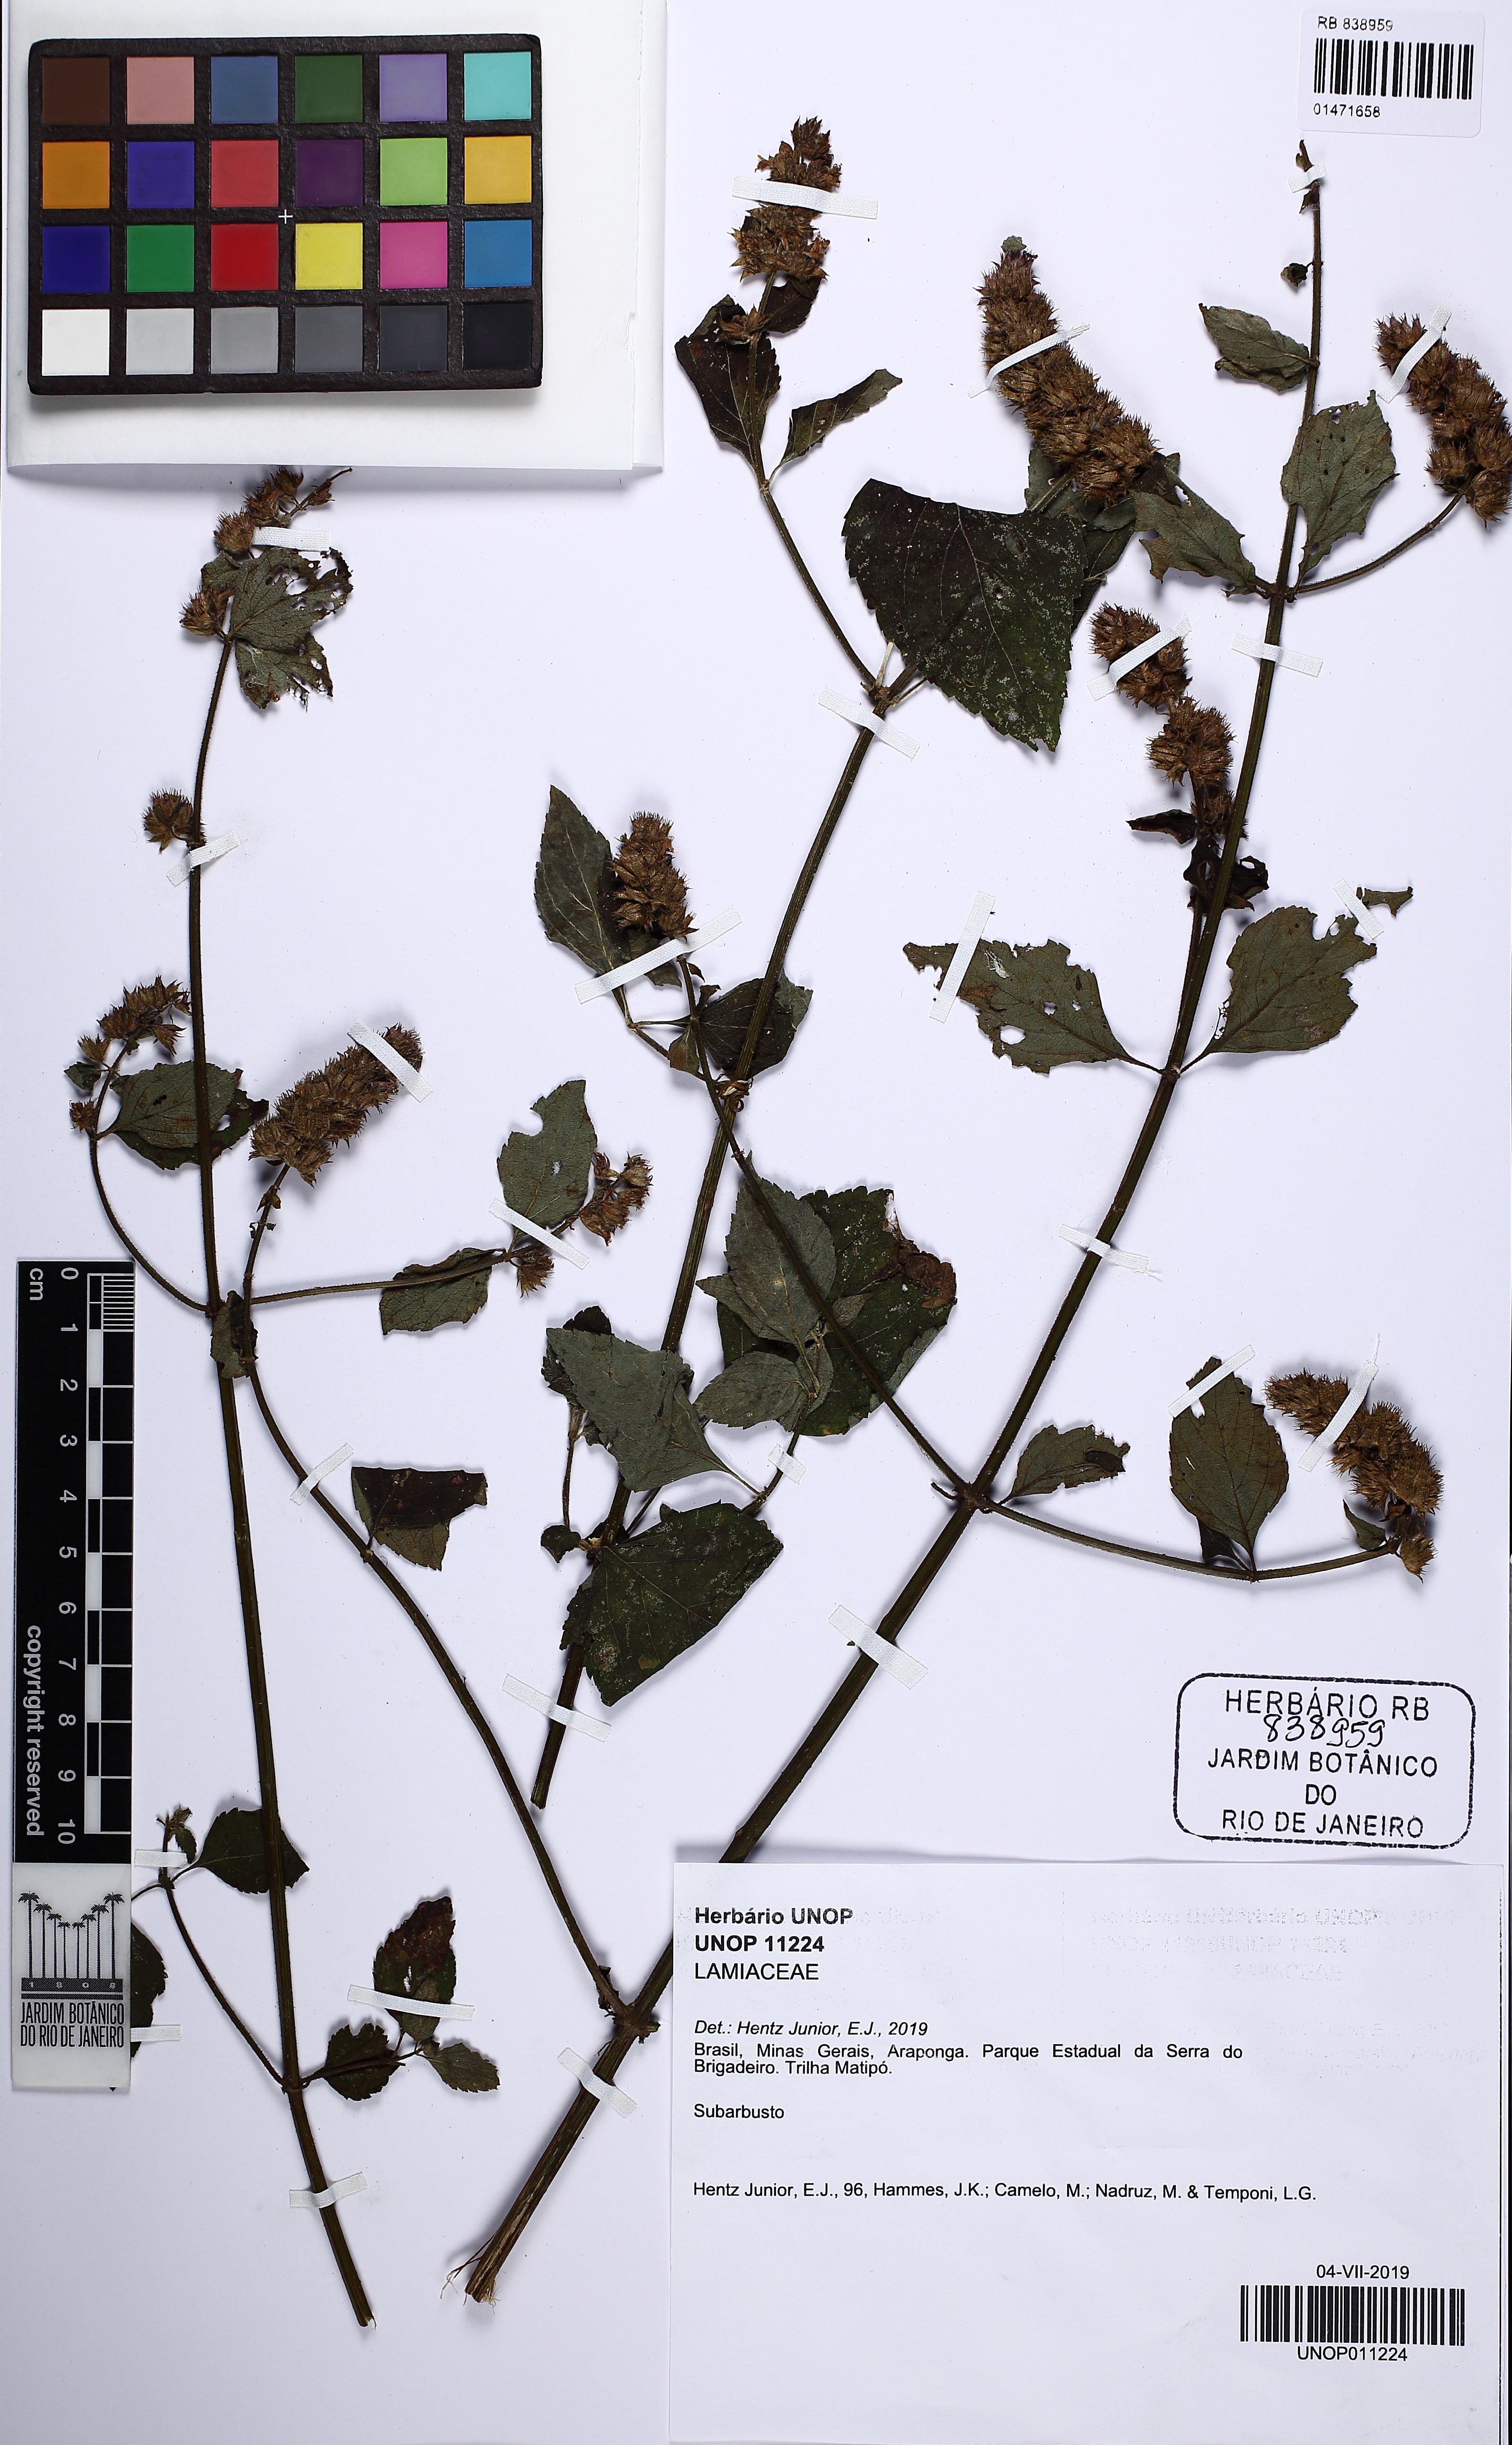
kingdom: Plantae
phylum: Tracheophyta
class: Magnoliopsida
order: Lamiales
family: Lamiaceae
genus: Cantinoa
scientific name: Cantinoa
